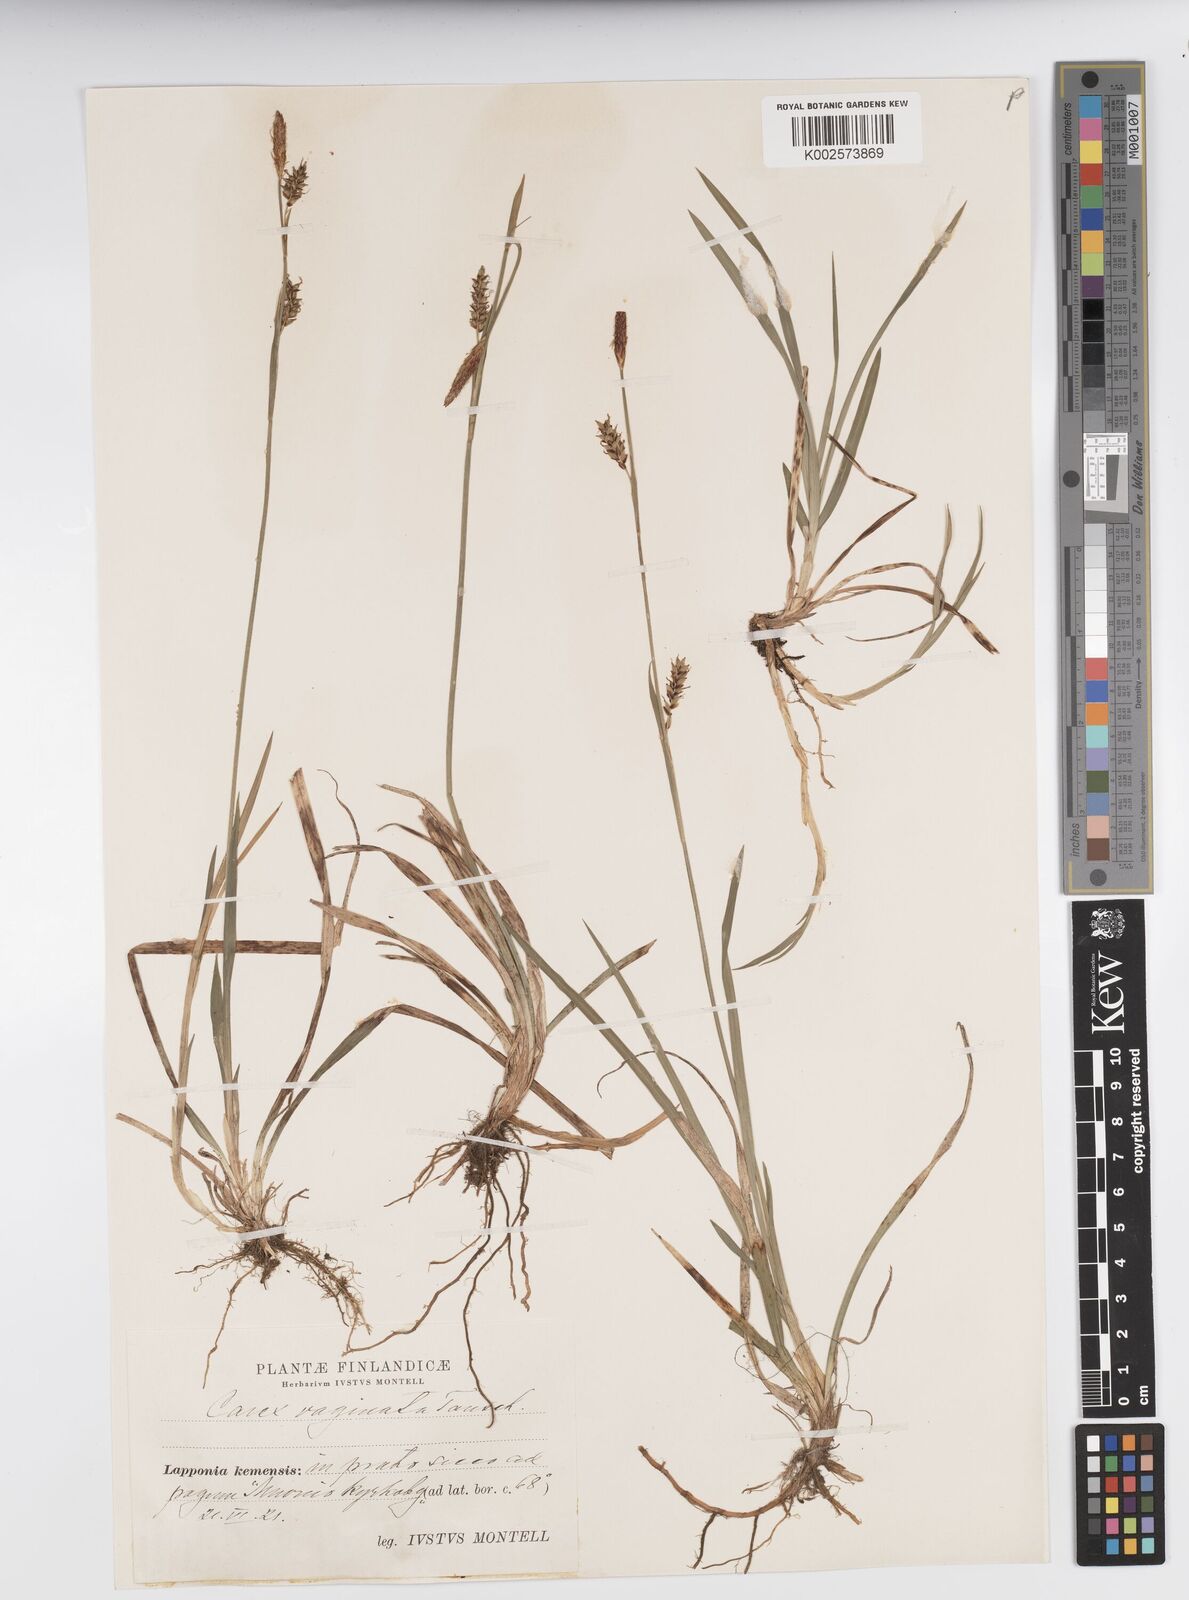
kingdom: Plantae
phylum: Tracheophyta
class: Liliopsida
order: Poales
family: Cyperaceae
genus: Carex
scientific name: Carex vaginata
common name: Sheathed sedge
